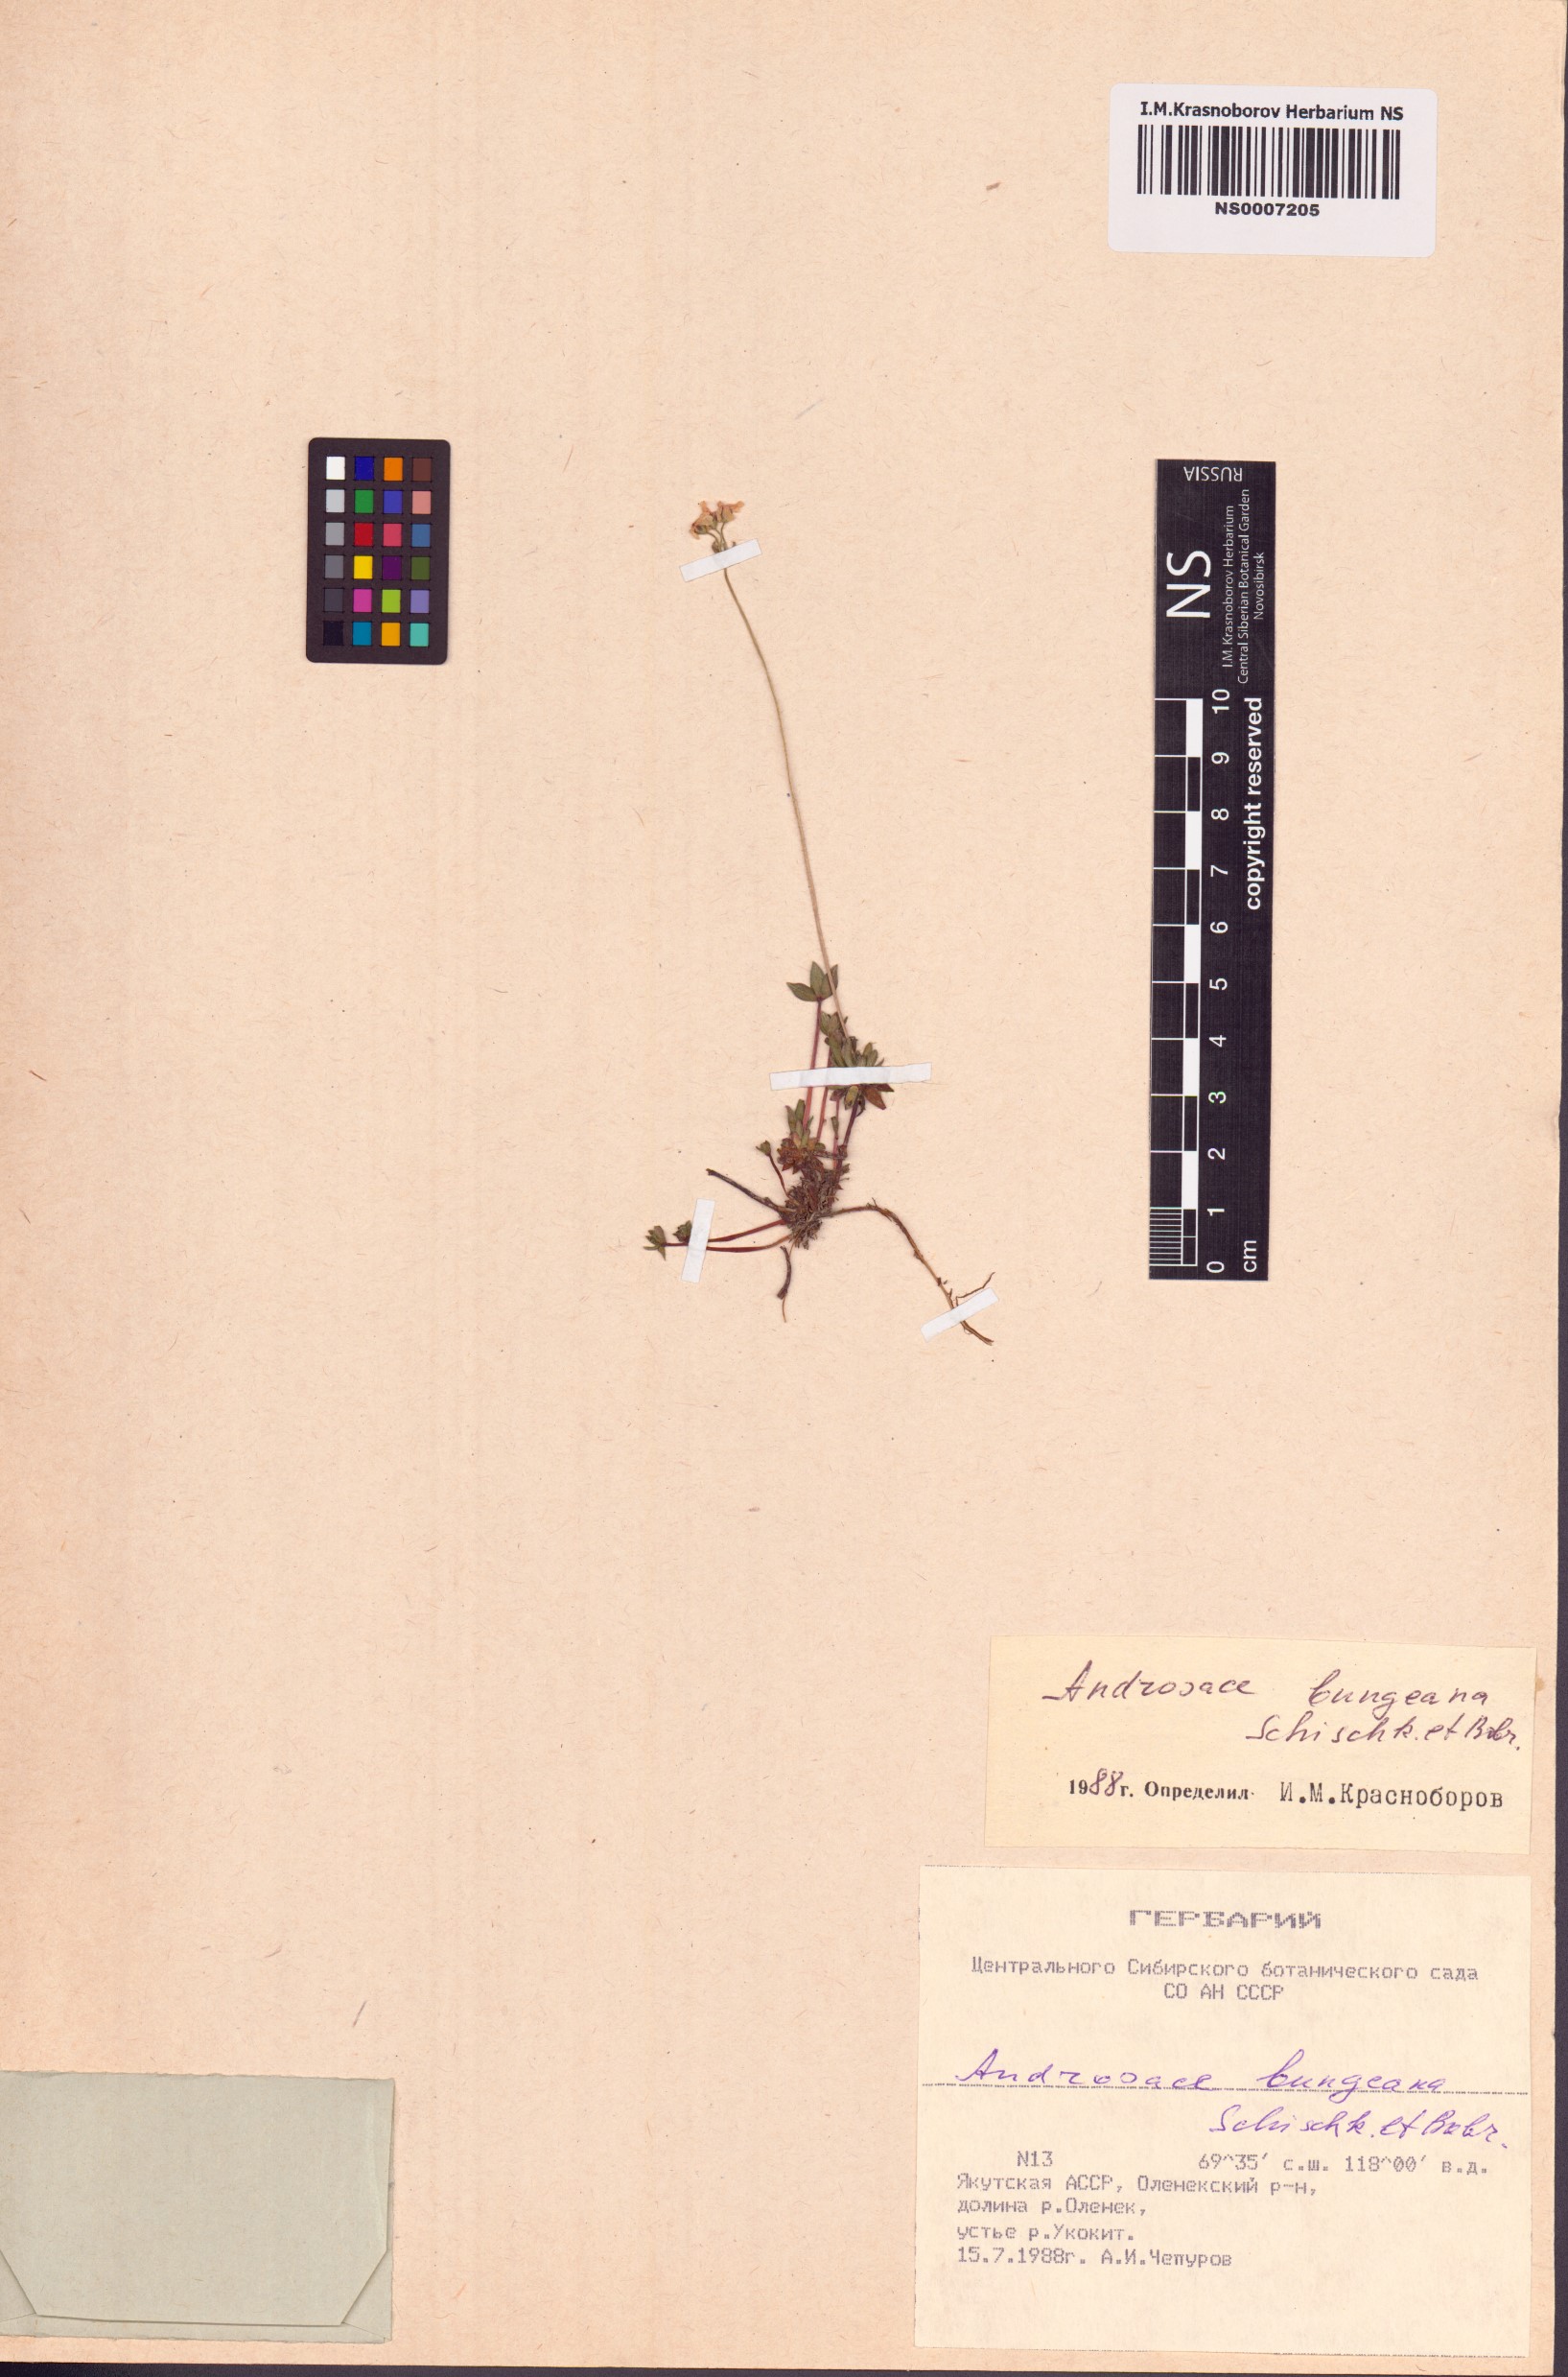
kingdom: Plantae
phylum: Tracheophyta
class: Magnoliopsida
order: Ericales
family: Primulaceae
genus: Androsace
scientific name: Androsace bungeana
